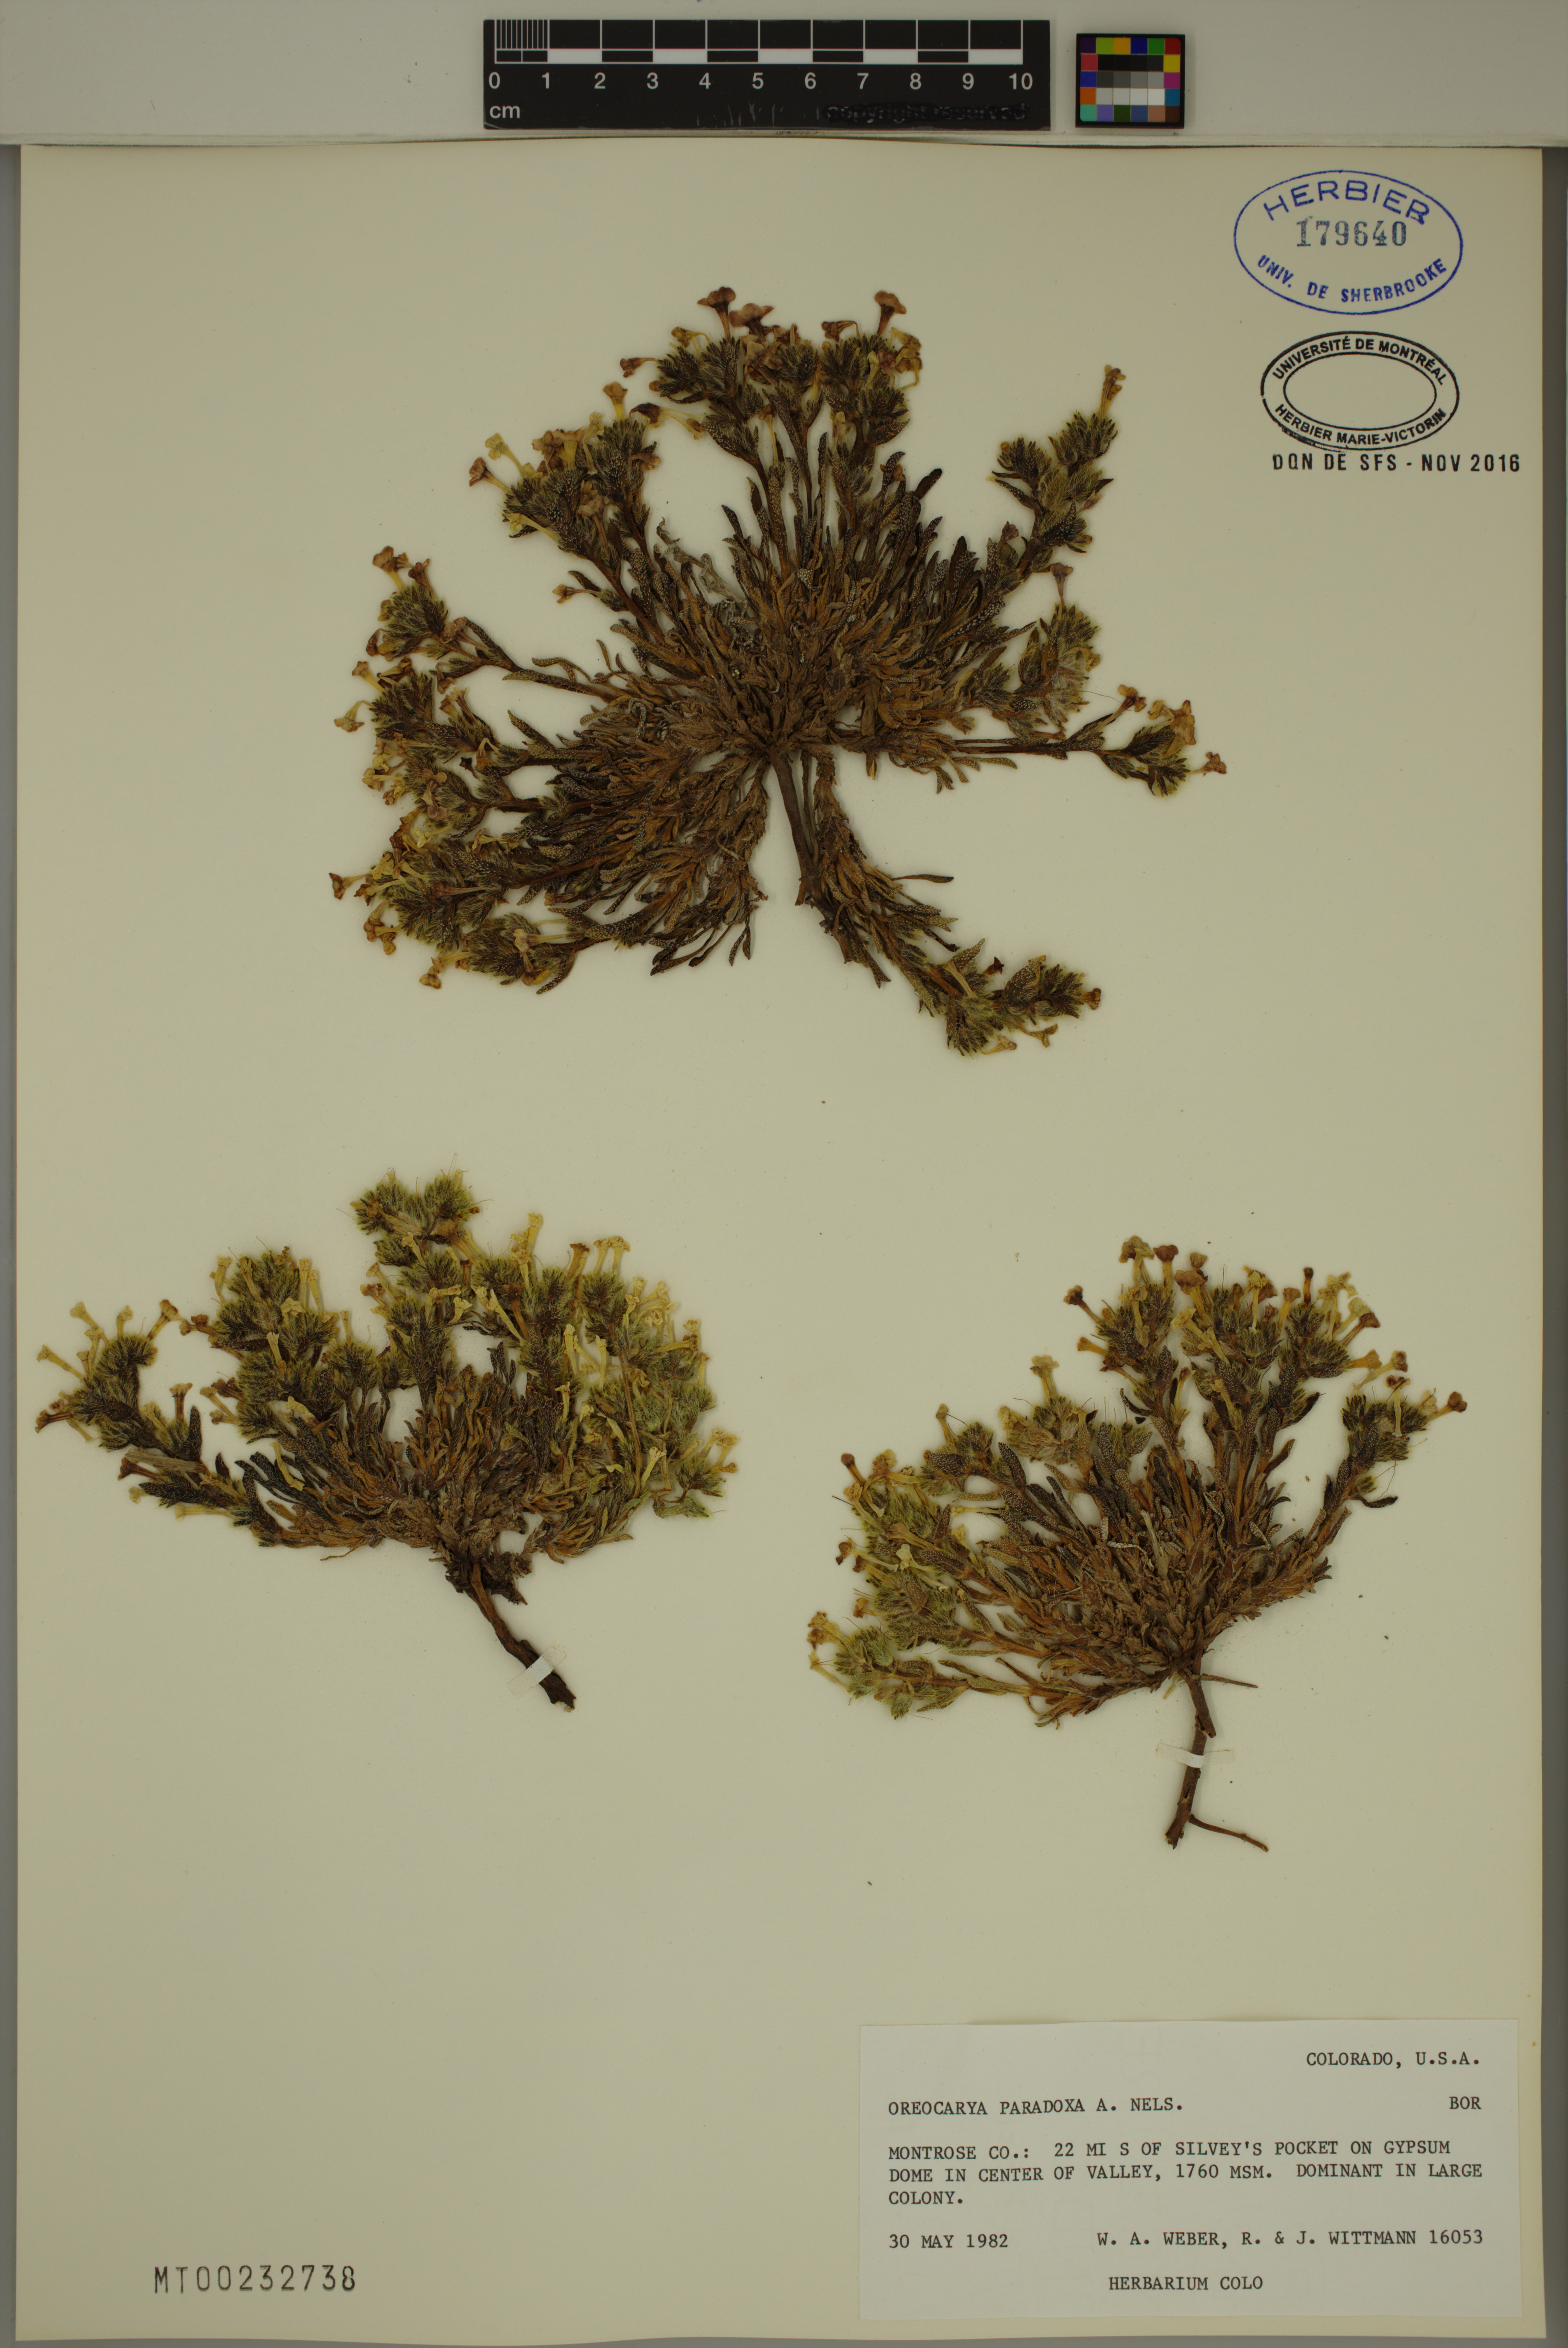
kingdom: Plantae
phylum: Tracheophyta
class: Magnoliopsida
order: Boraginales
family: Boraginaceae
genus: Oreocarya
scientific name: Oreocarya paradoxa
